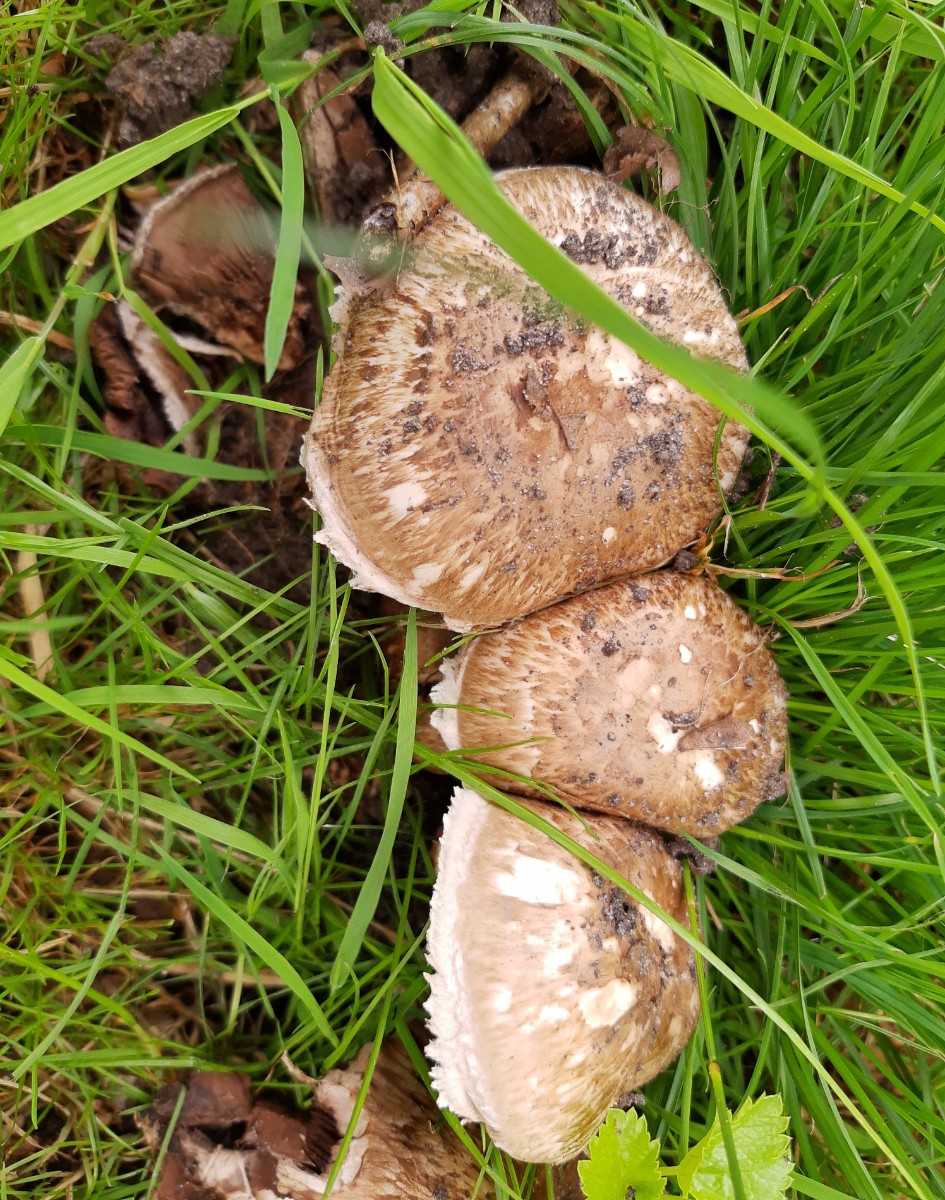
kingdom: Fungi
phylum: Basidiomycota
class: Agaricomycetes
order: Agaricales
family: Agaricaceae
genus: Agaricus
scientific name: Agaricus subperonatus
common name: knippe-champignon
